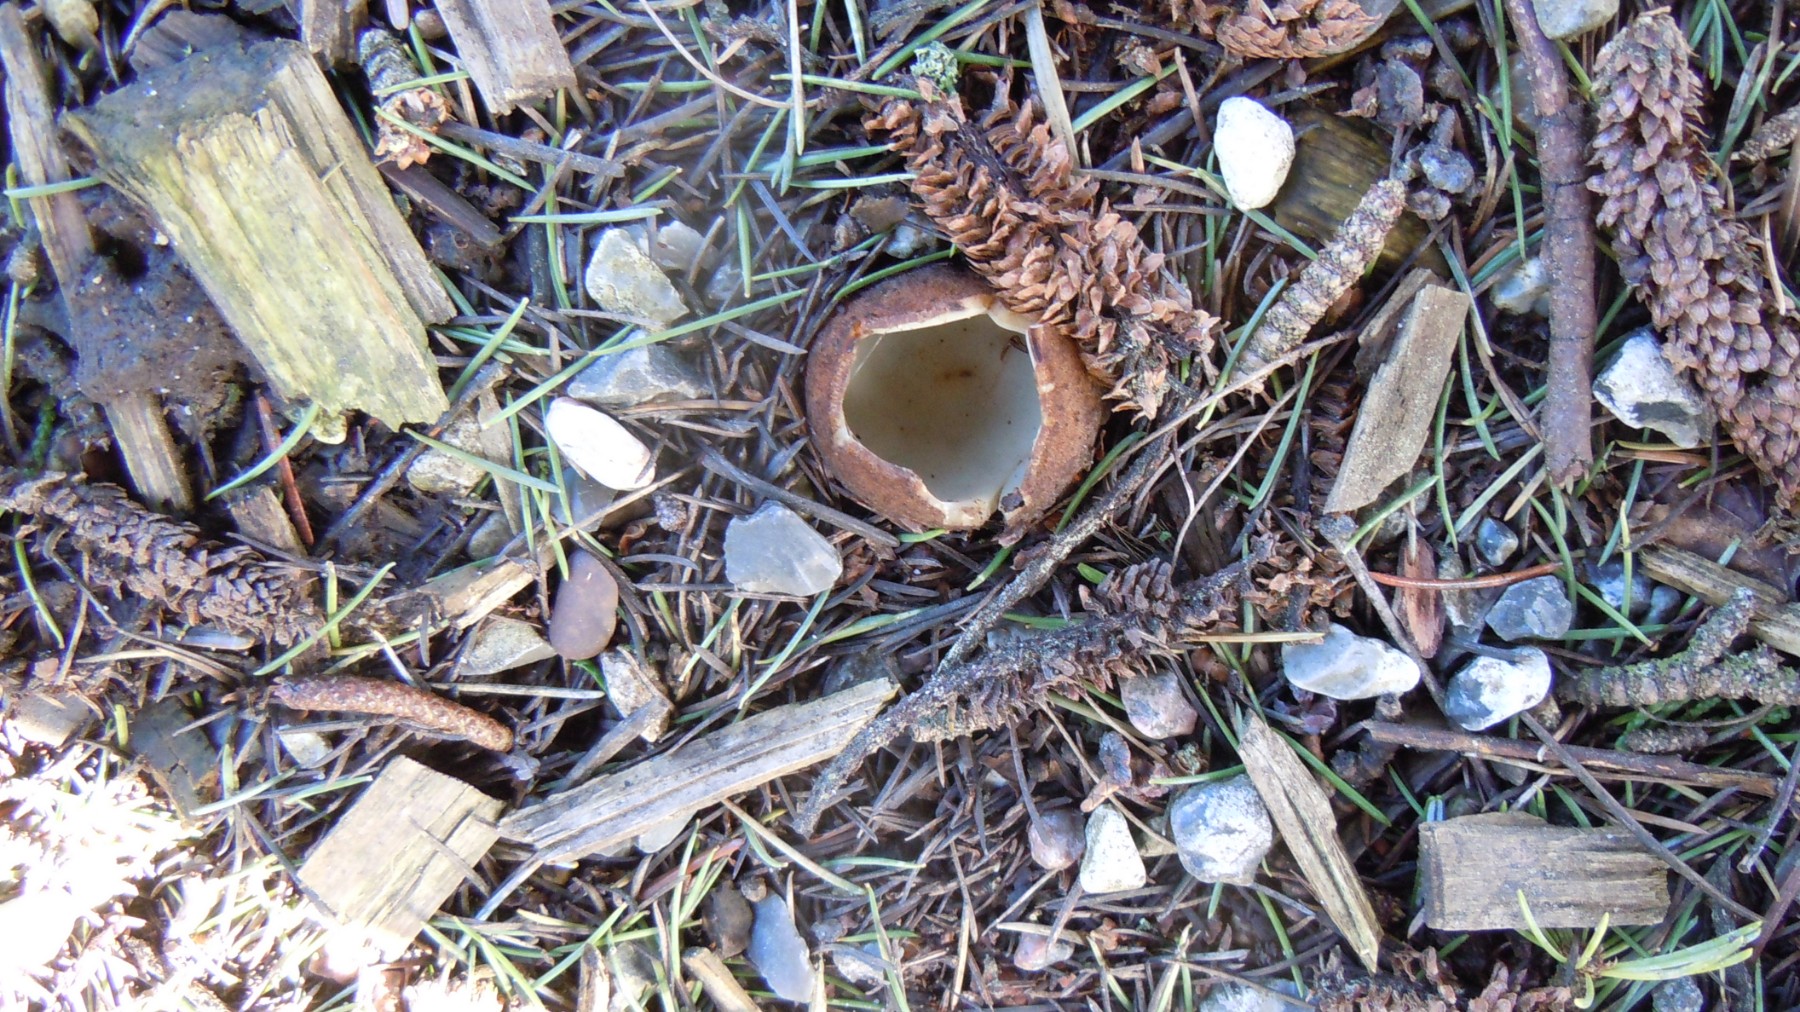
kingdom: Fungi
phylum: Ascomycota
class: Pezizomycetes
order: Pezizales
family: Pyronemataceae
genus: Geopora
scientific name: Geopora sumneriana
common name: vår-jordbæger
